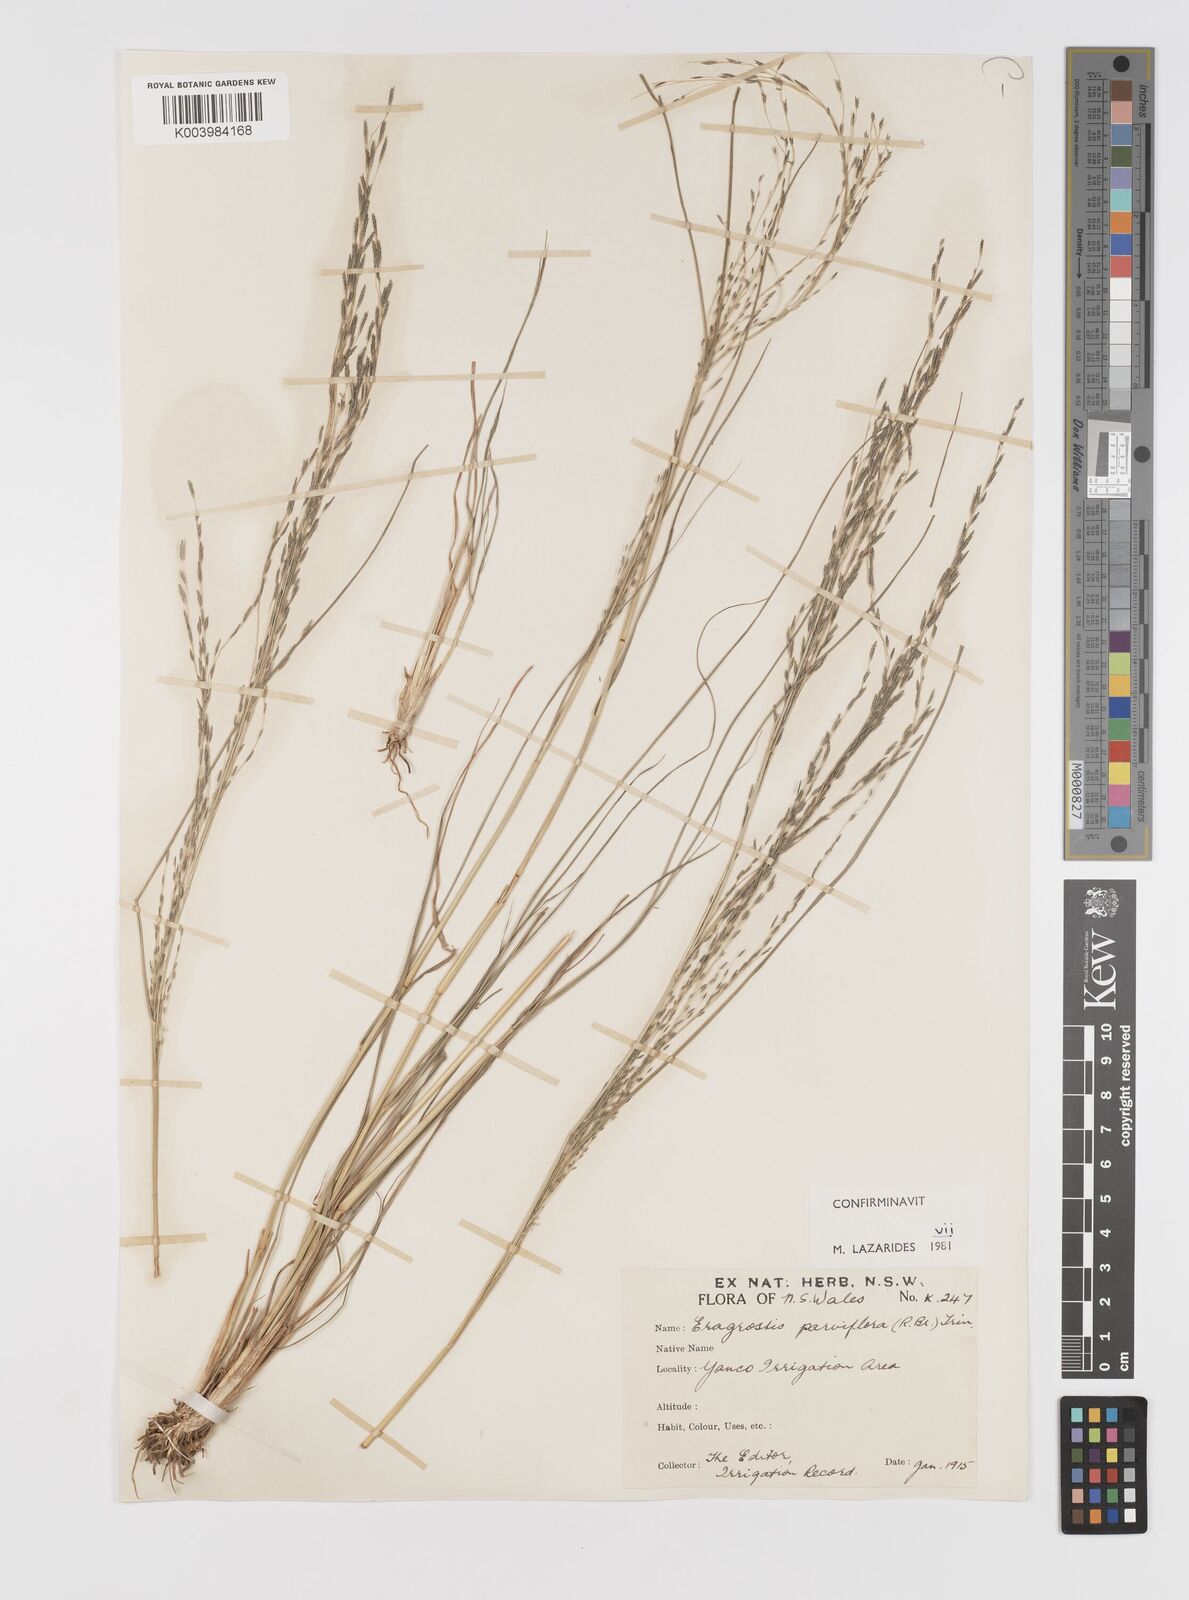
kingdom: Plantae
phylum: Tracheophyta
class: Liliopsida
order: Poales
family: Poaceae
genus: Eragrostis
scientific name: Eragrostis parviflora
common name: Weeping love-grass
